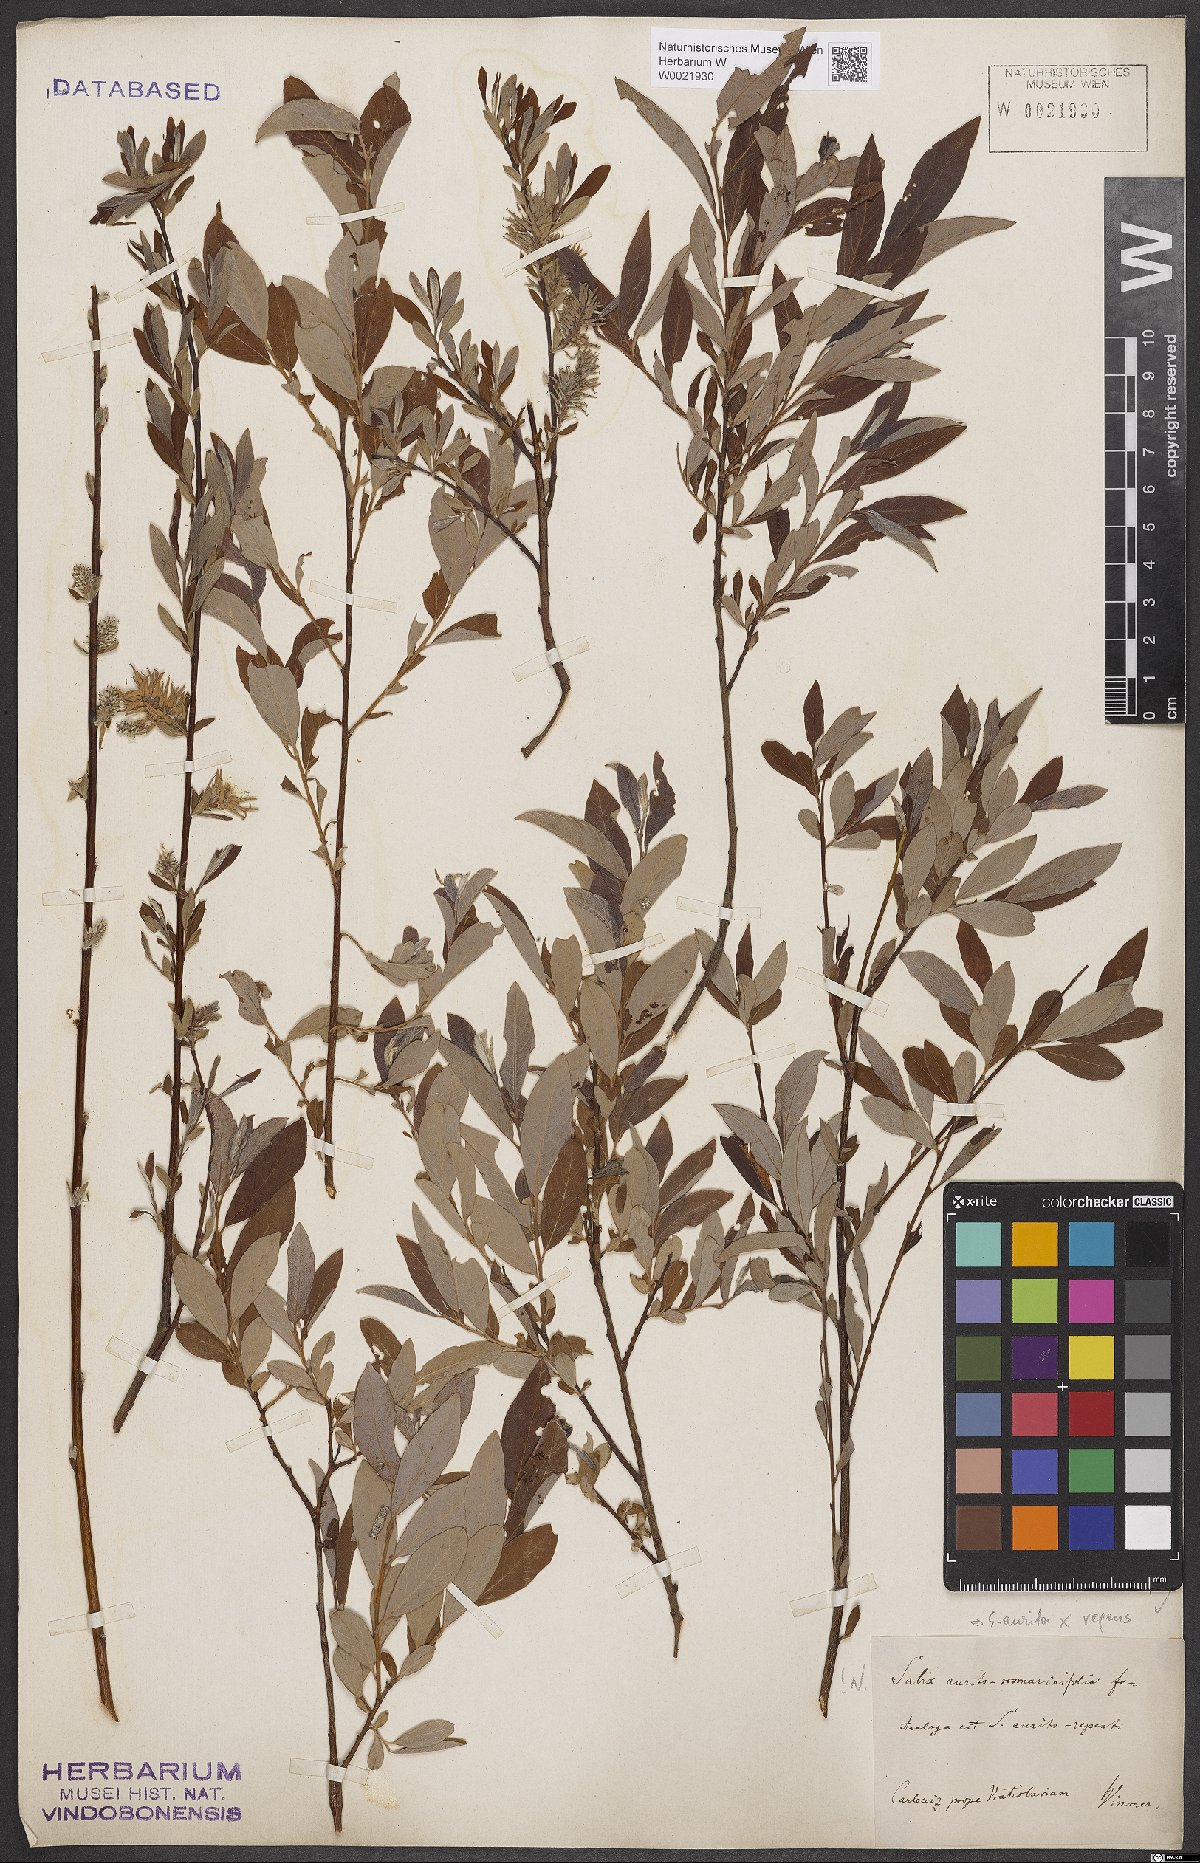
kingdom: Plantae
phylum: Tracheophyta
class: Magnoliopsida
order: Malpighiales
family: Salicaceae
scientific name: Salicaceae
